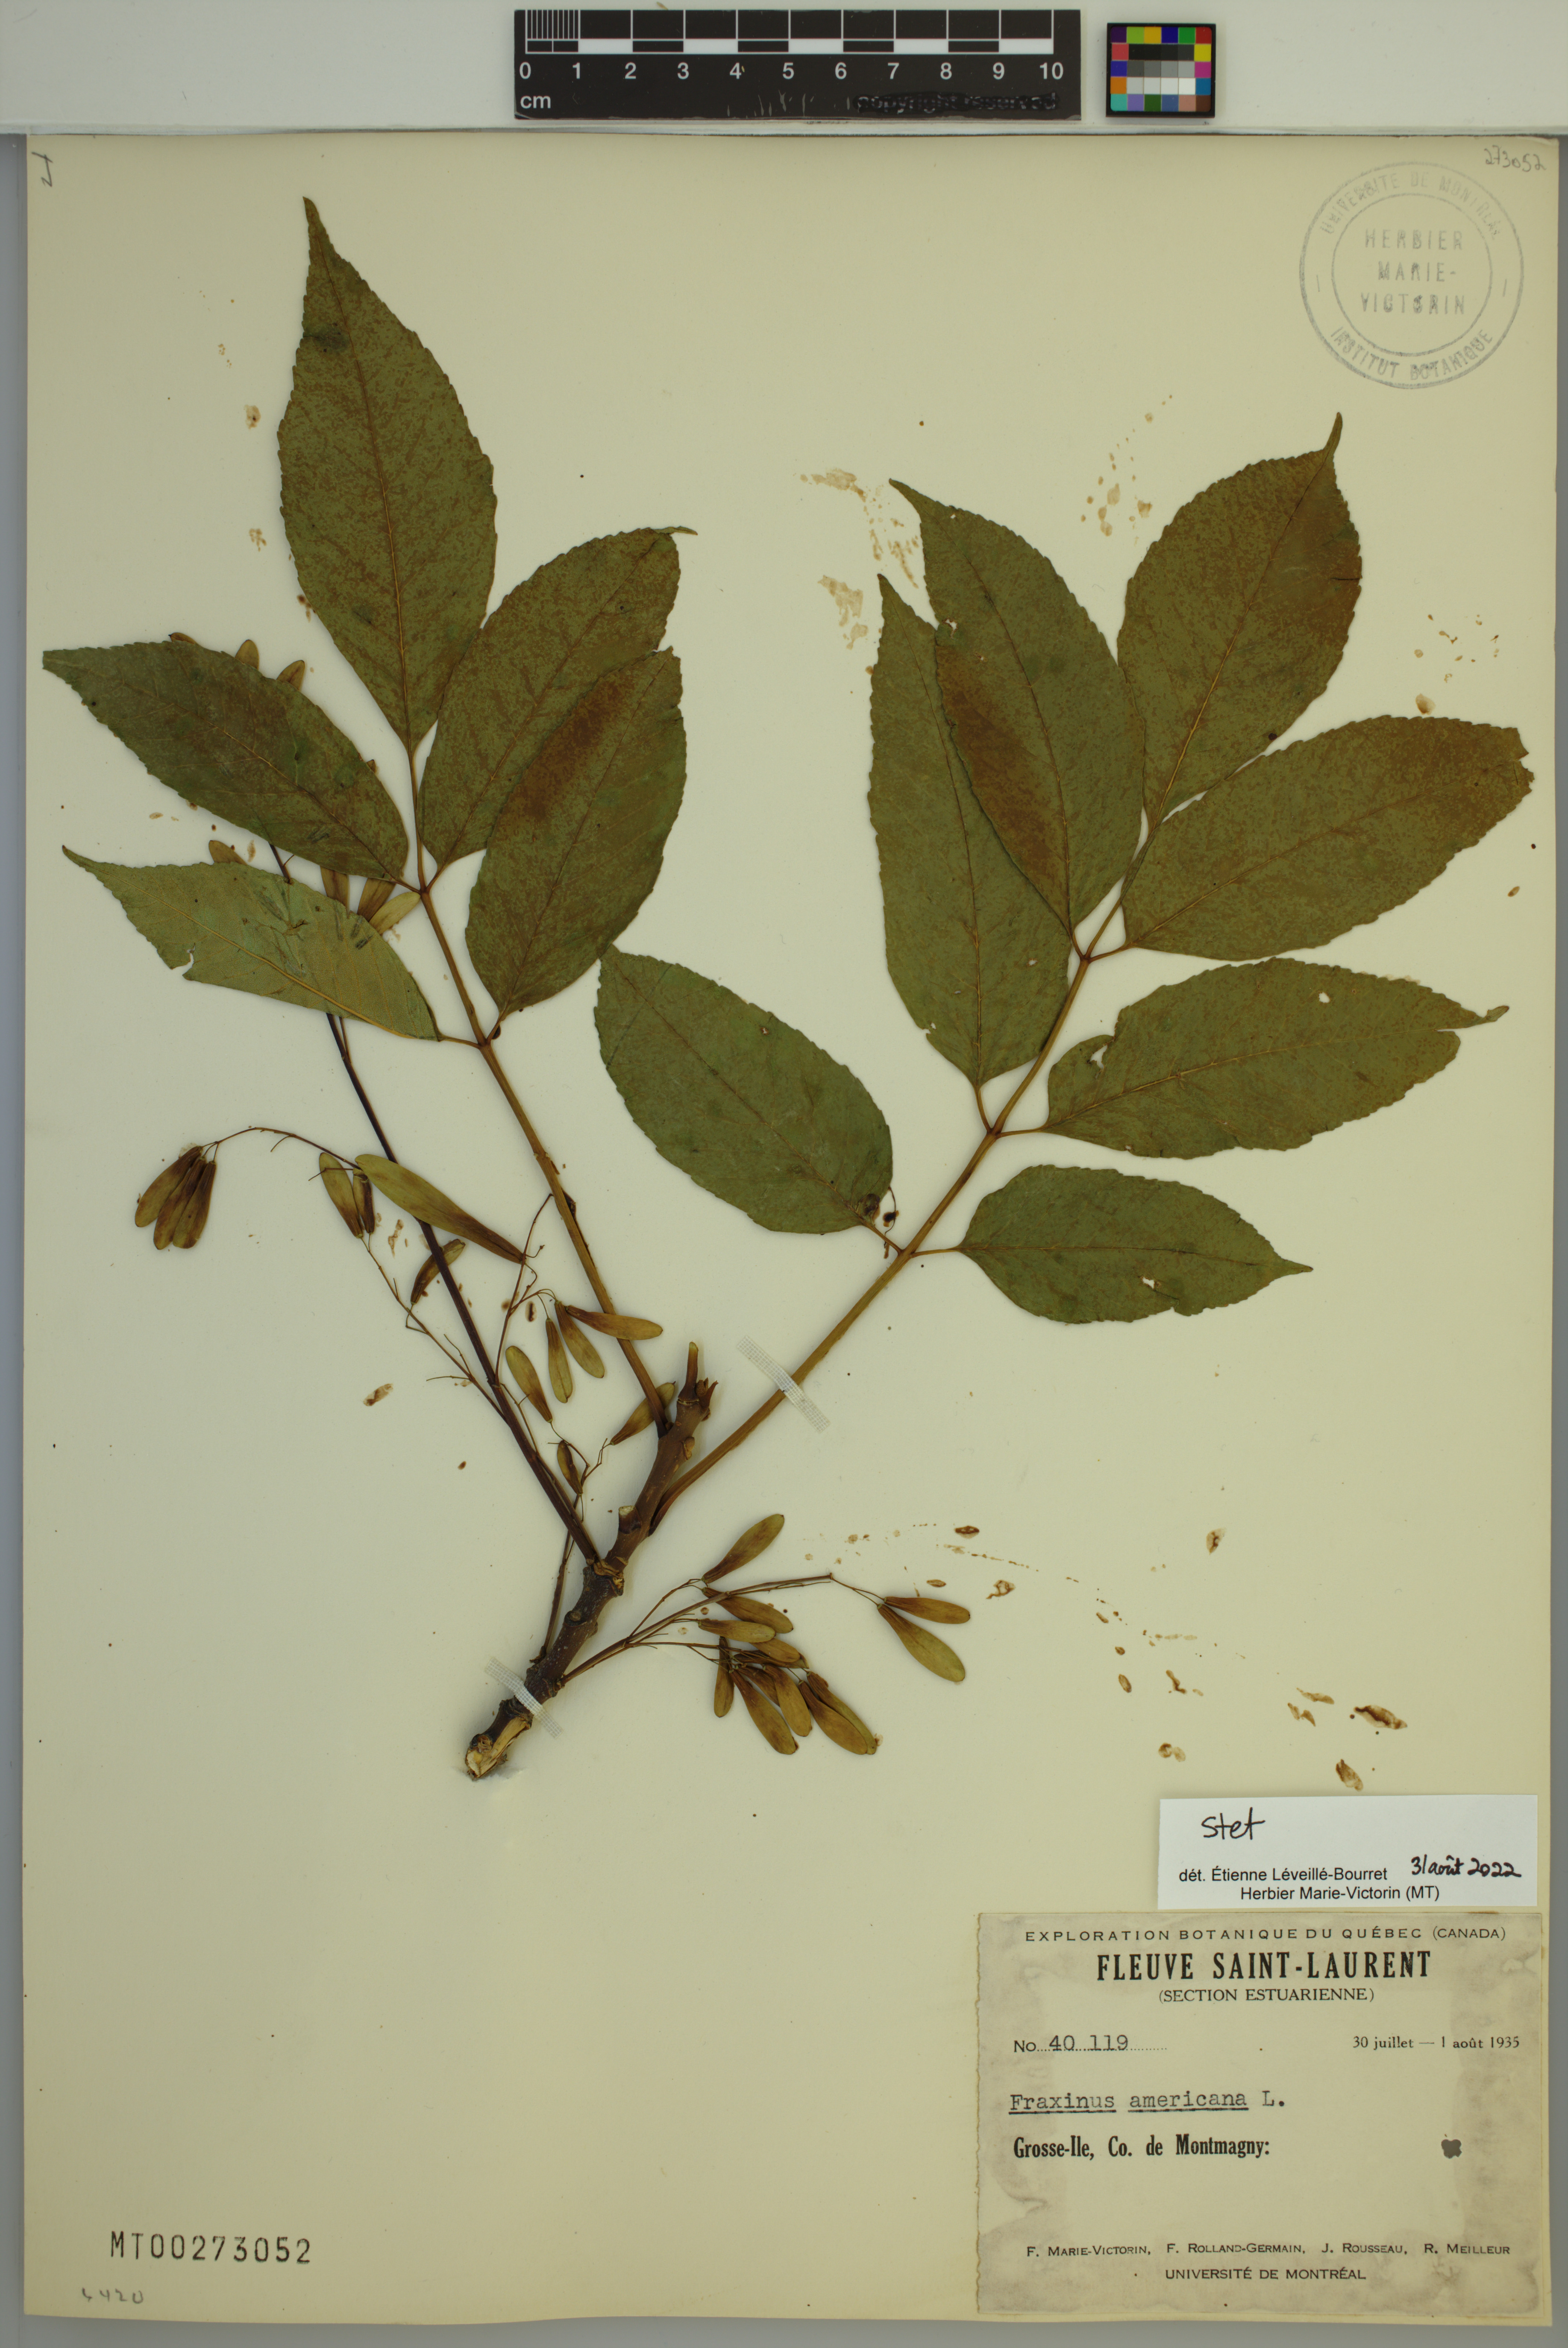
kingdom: Plantae
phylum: Tracheophyta
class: Magnoliopsida
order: Lamiales
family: Oleaceae
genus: Fraxinus
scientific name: Fraxinus americana
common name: White ash
